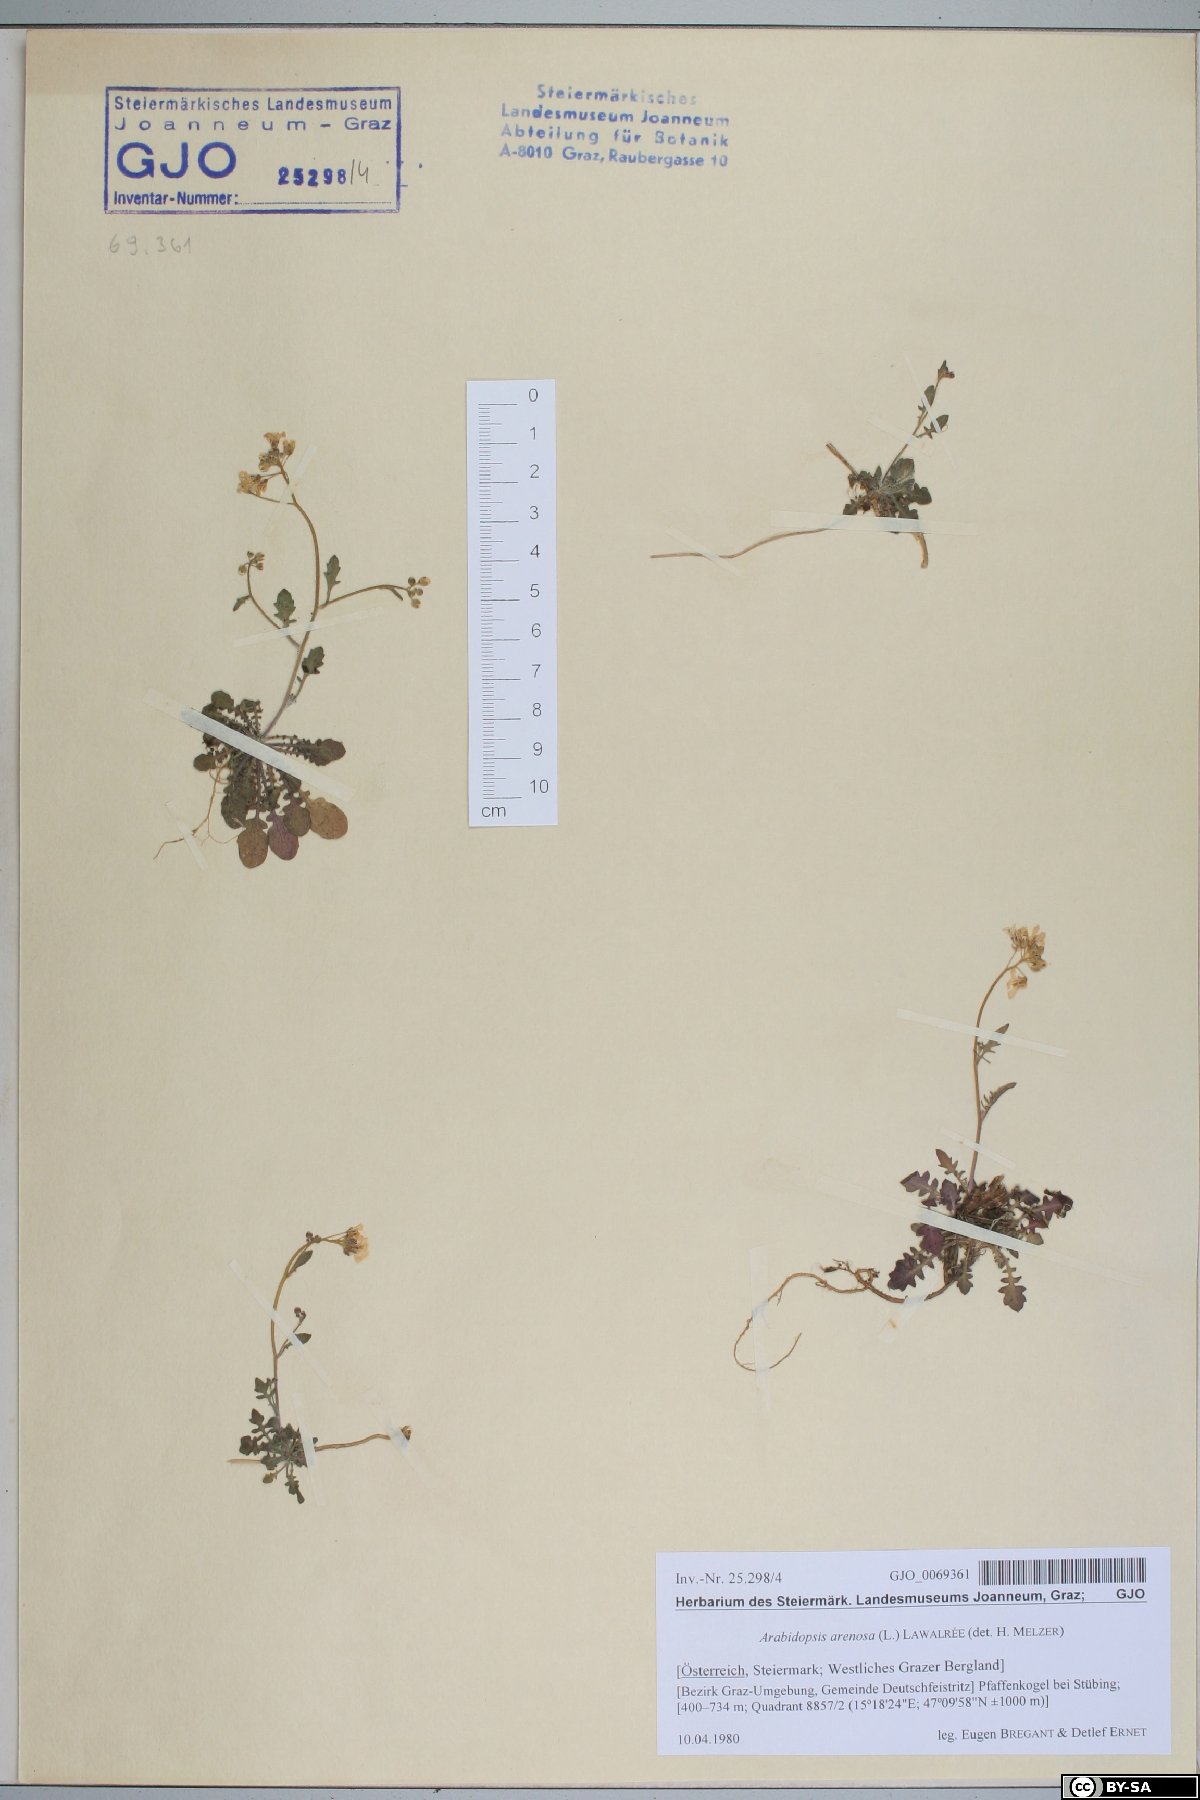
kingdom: Plantae
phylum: Tracheophyta
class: Magnoliopsida
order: Brassicales
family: Brassicaceae
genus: Arabidopsis
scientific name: Arabidopsis arenosa
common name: Sand rock-cress
